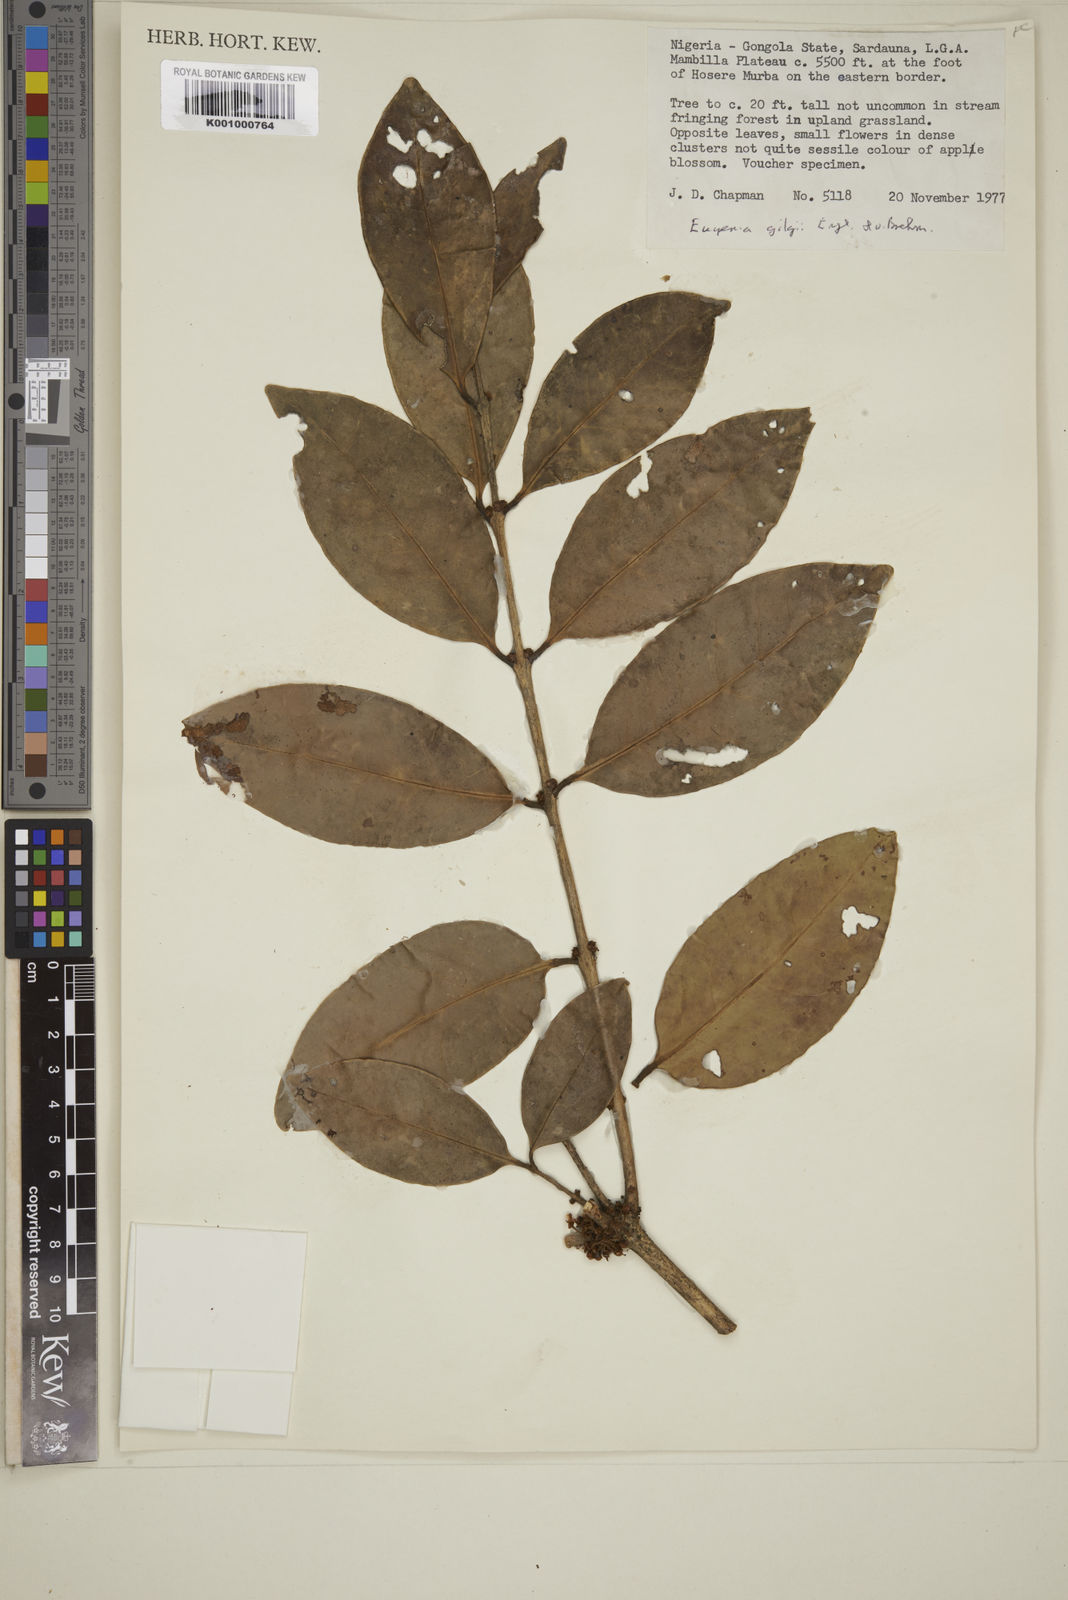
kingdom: Plantae
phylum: Tracheophyta
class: Magnoliopsida
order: Myrtales
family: Myrtaceae
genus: Eugenia
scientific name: Eugenia gilgii
